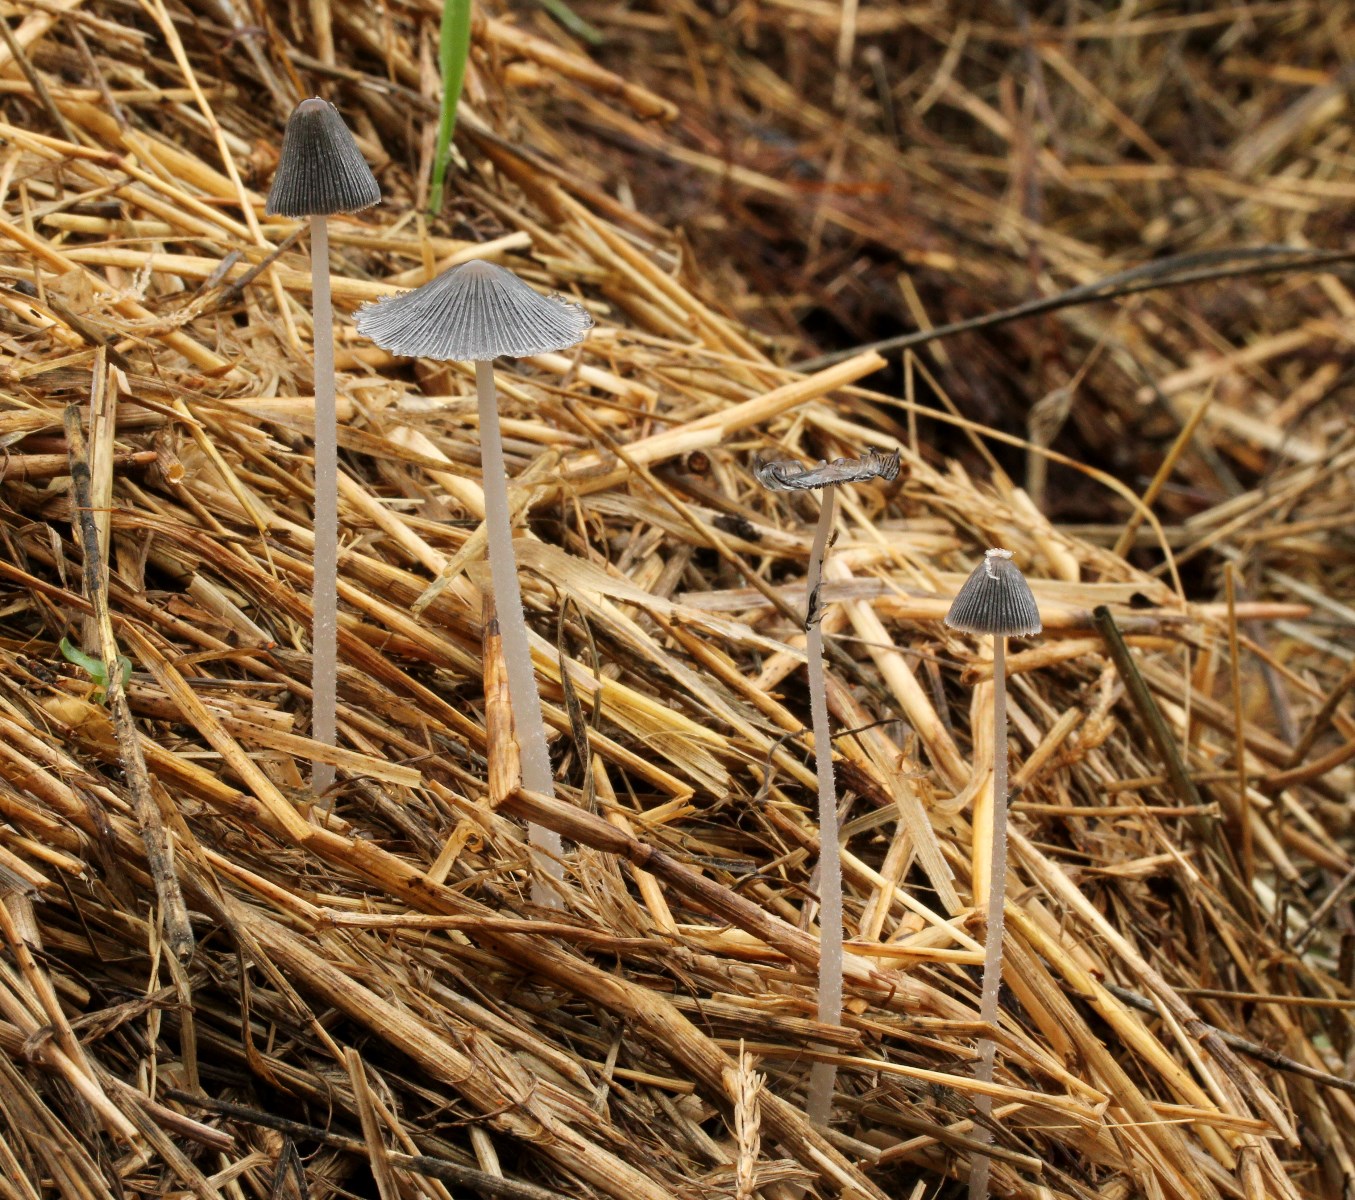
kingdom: Fungi
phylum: Basidiomycota
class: Agaricomycetes
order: Agaricales
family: Psathyrellaceae
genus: Coprinopsis
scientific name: Coprinopsis
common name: blækhat
